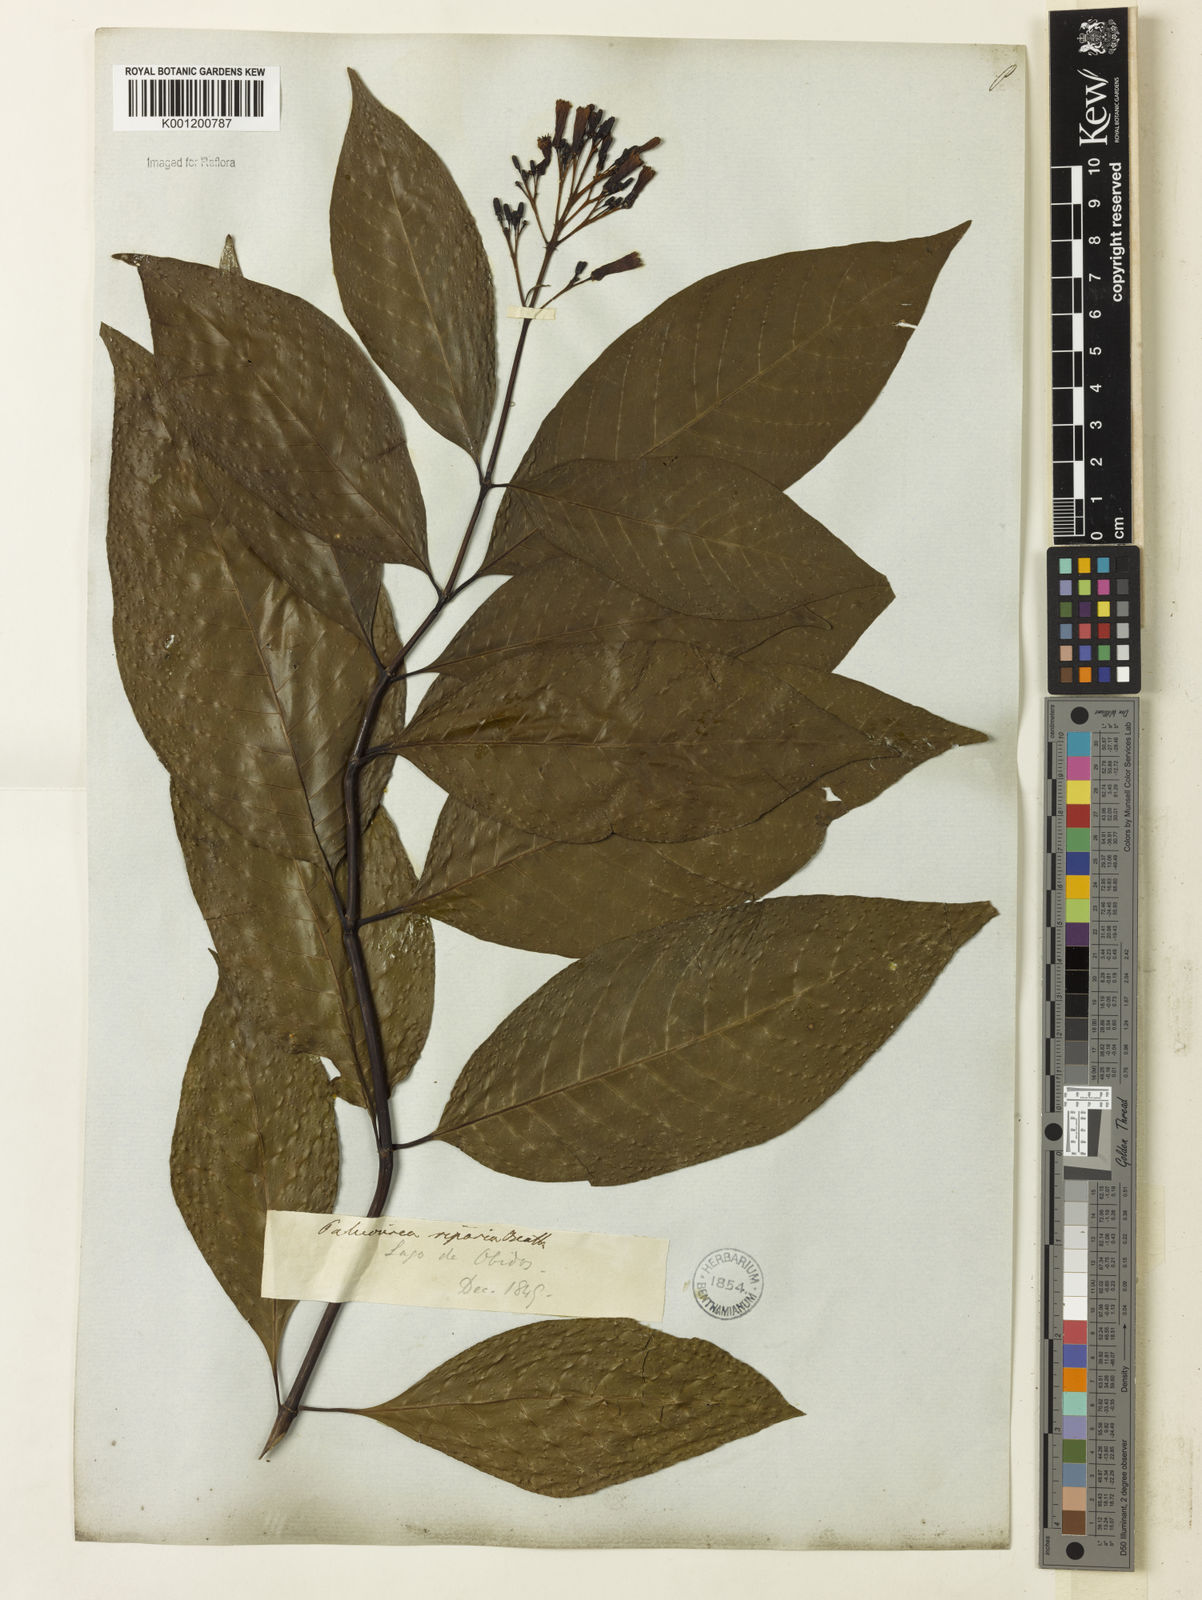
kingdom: Plantae
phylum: Tracheophyta
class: Magnoliopsida
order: Gentianales
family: Rubiaceae
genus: Palicourea
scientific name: Palicourea crocea
